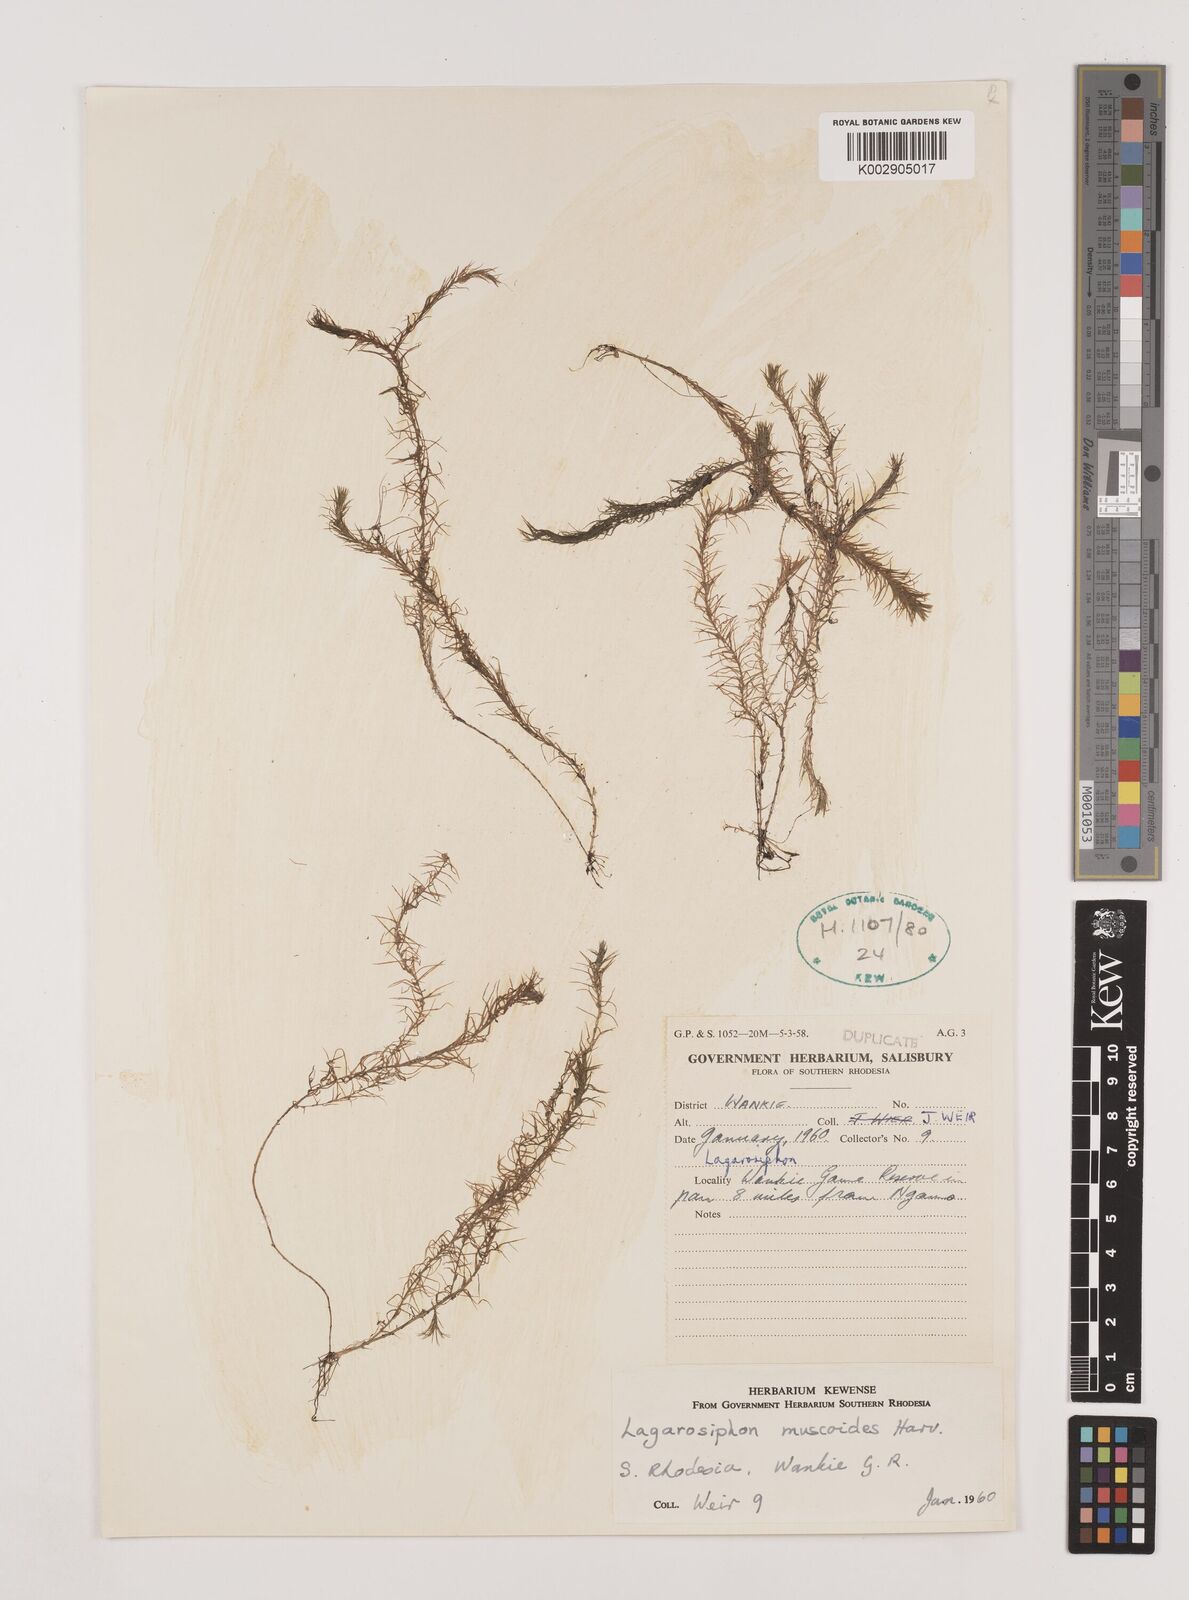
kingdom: Plantae
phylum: Tracheophyta
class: Liliopsida
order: Alismatales
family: Hydrocharitaceae
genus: Lagarosiphon
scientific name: Lagarosiphon muscoides
